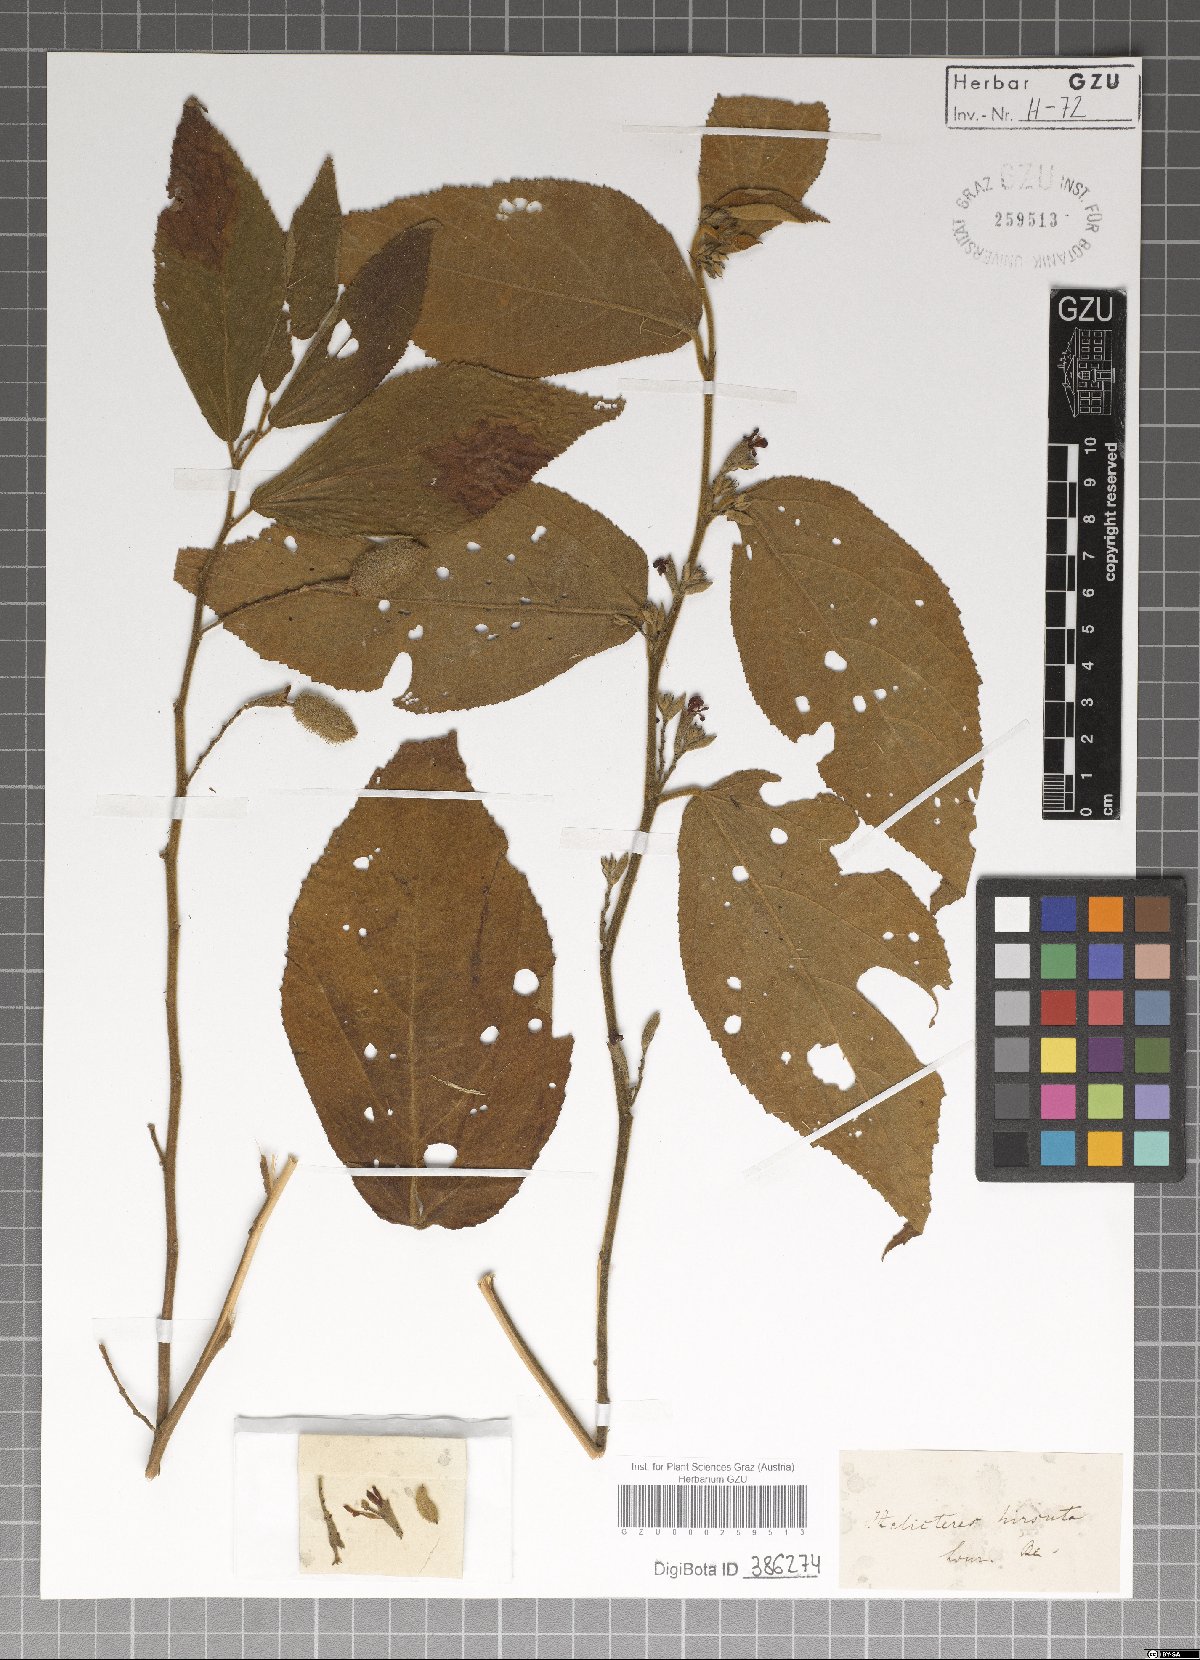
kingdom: Plantae
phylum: Tracheophyta
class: Magnoliopsida
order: Malvales
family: Malvaceae
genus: Helicteres
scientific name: Helicteres hirsuta
